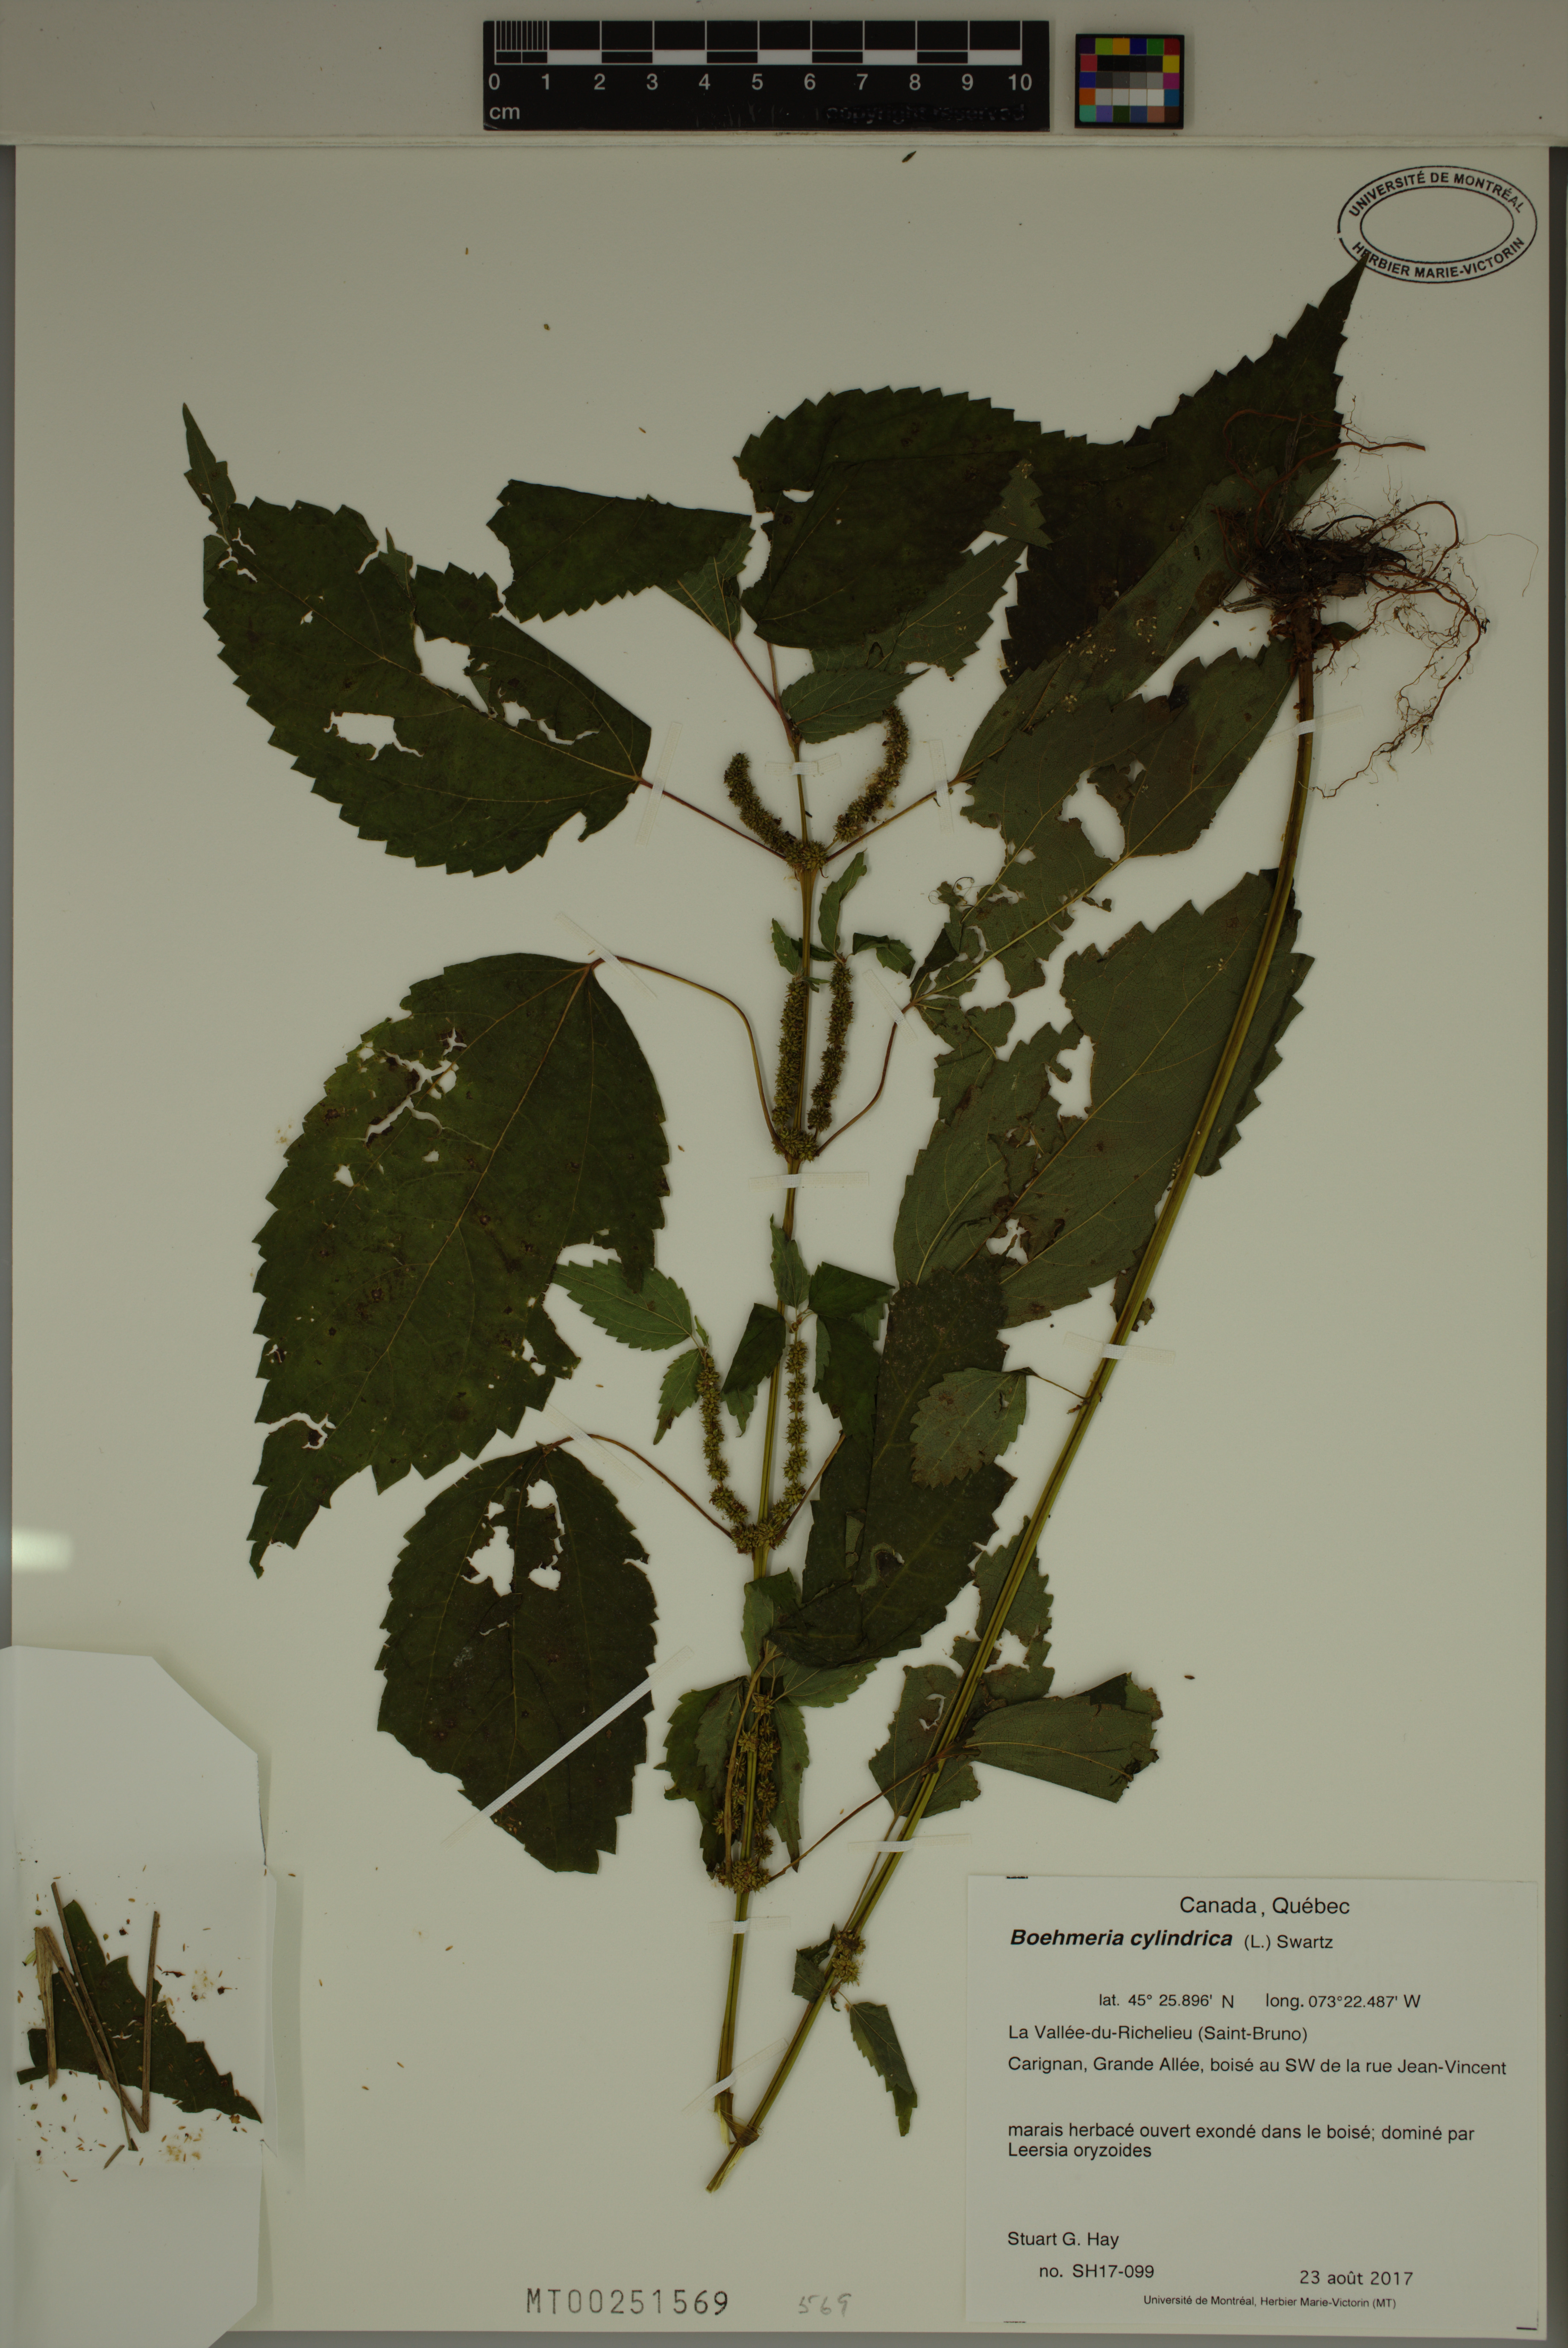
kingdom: Plantae
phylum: Tracheophyta
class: Magnoliopsida
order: Rosales
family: Urticaceae
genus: Boehmeria
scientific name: Boehmeria cylindrica
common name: Bog-hemp
